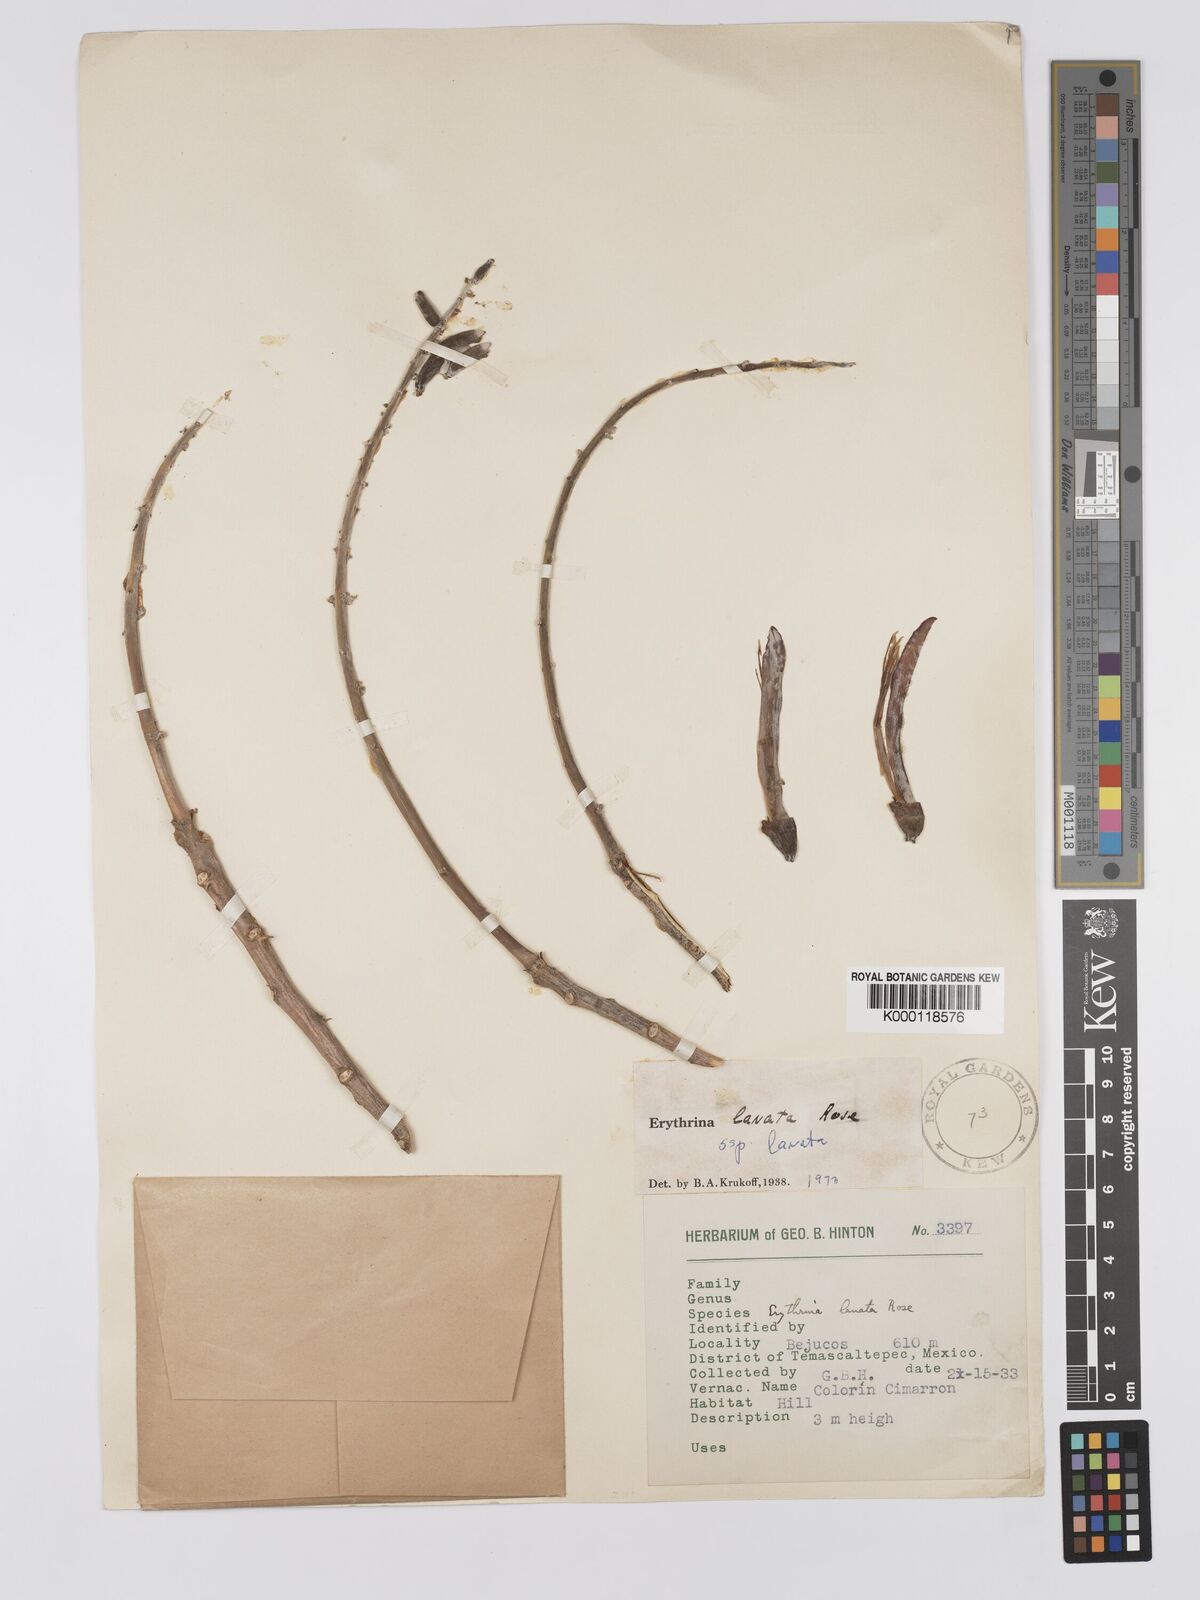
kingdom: Plantae
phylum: Tracheophyta
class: Magnoliopsida
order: Fabales
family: Fabaceae
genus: Erythrina
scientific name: Erythrina lanata
